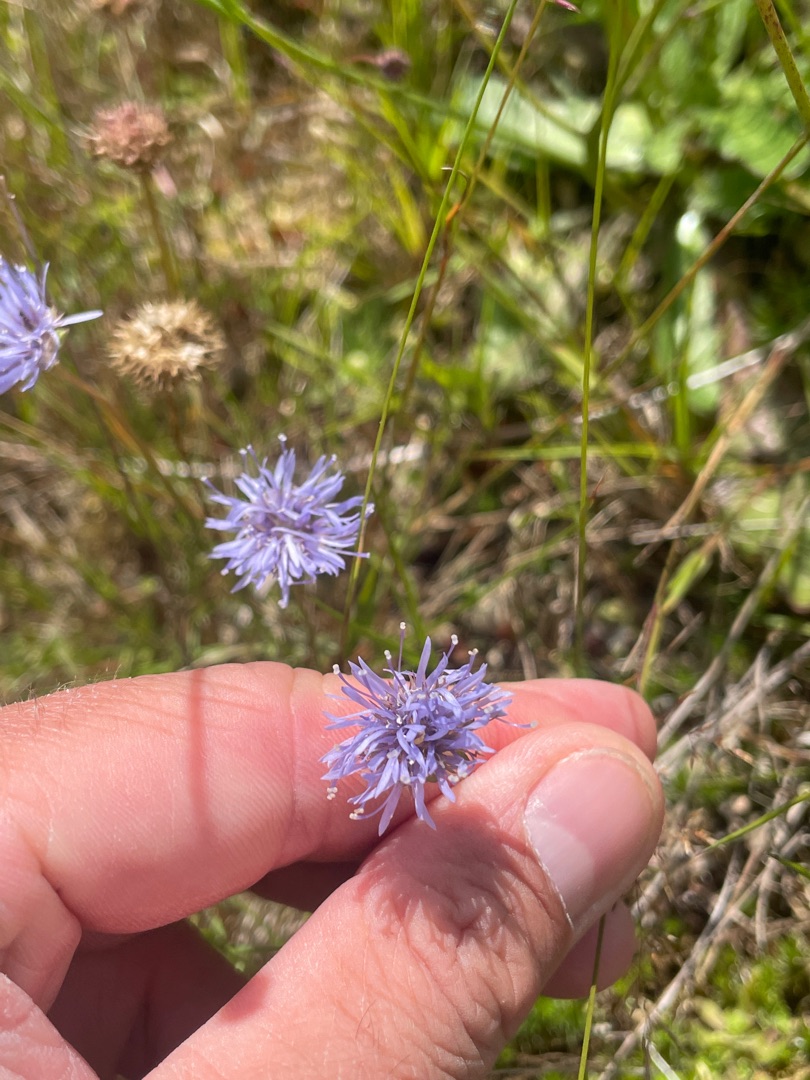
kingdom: Plantae
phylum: Tracheophyta
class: Magnoliopsida
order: Asterales
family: Campanulaceae
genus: Jasione
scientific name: Jasione montana
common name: Blåmunke
